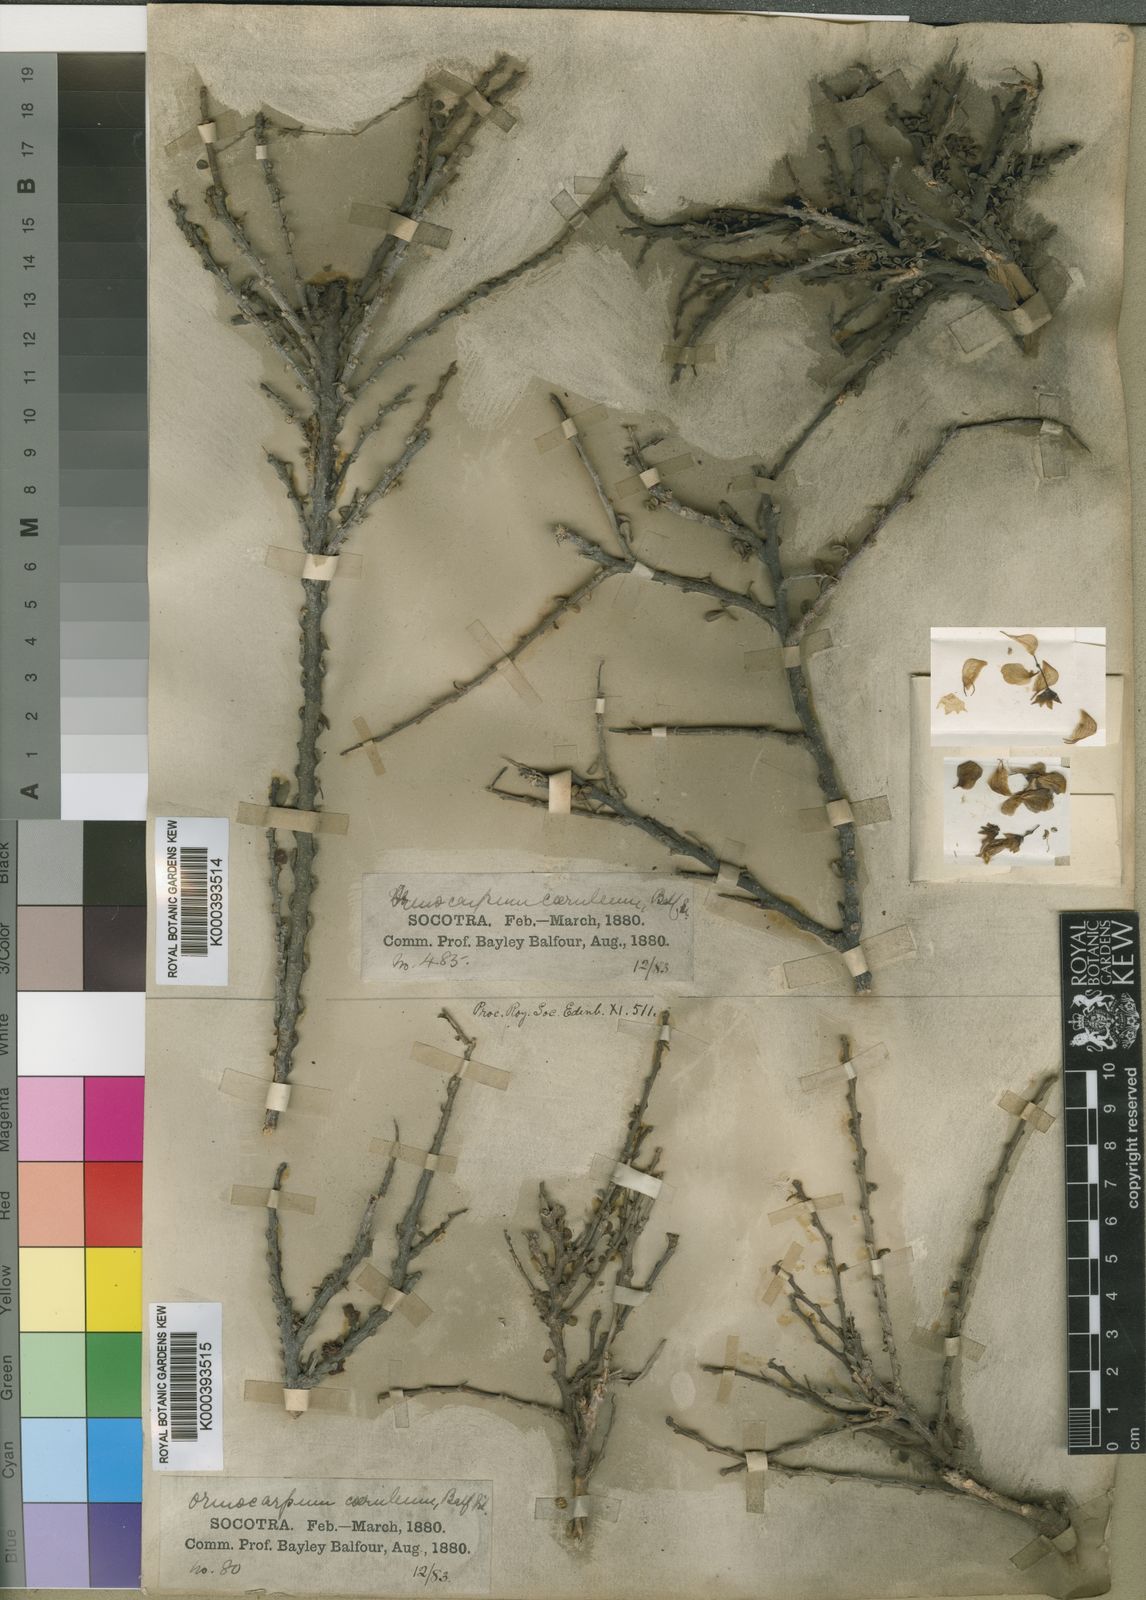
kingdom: Plantae
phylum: Tracheophyta
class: Magnoliopsida
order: Fabales
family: Fabaceae
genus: Zygocarpum
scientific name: Zygocarpum caeruleum
